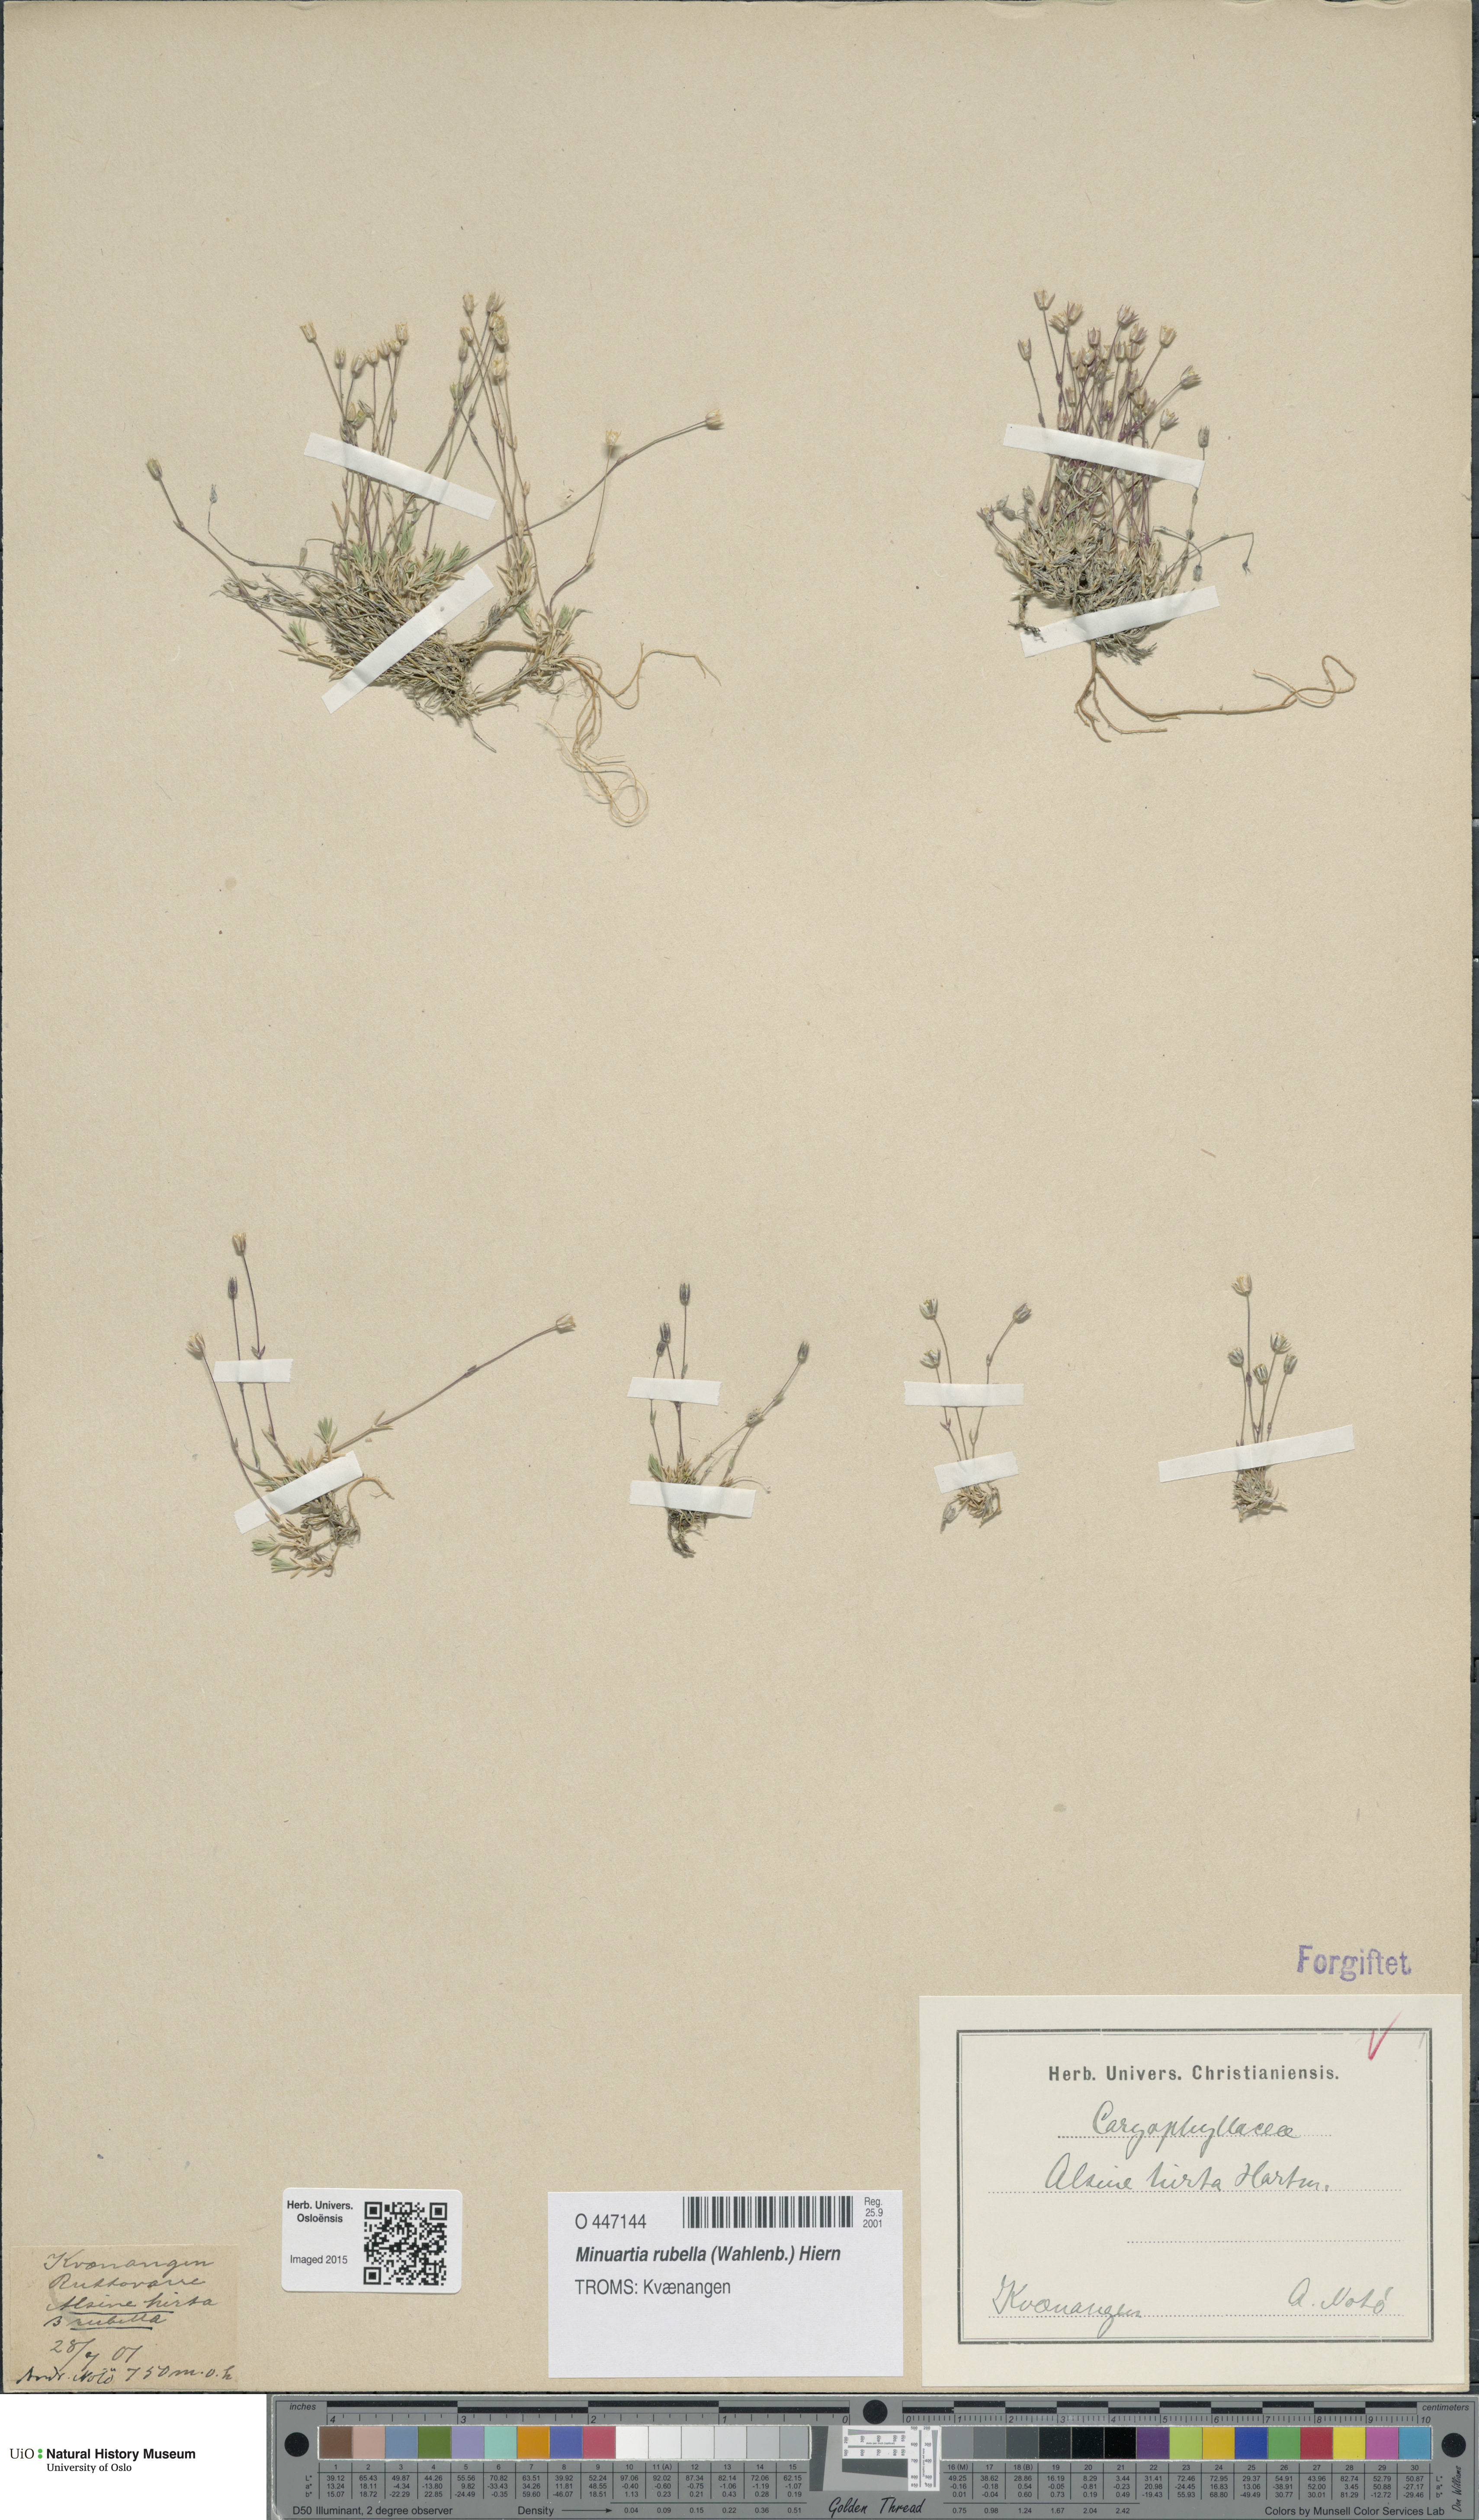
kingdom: Plantae
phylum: Tracheophyta
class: Magnoliopsida
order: Caryophyllales
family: Caryophyllaceae
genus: Sabulina
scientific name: Sabulina rubella
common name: Beautiful sandwort
